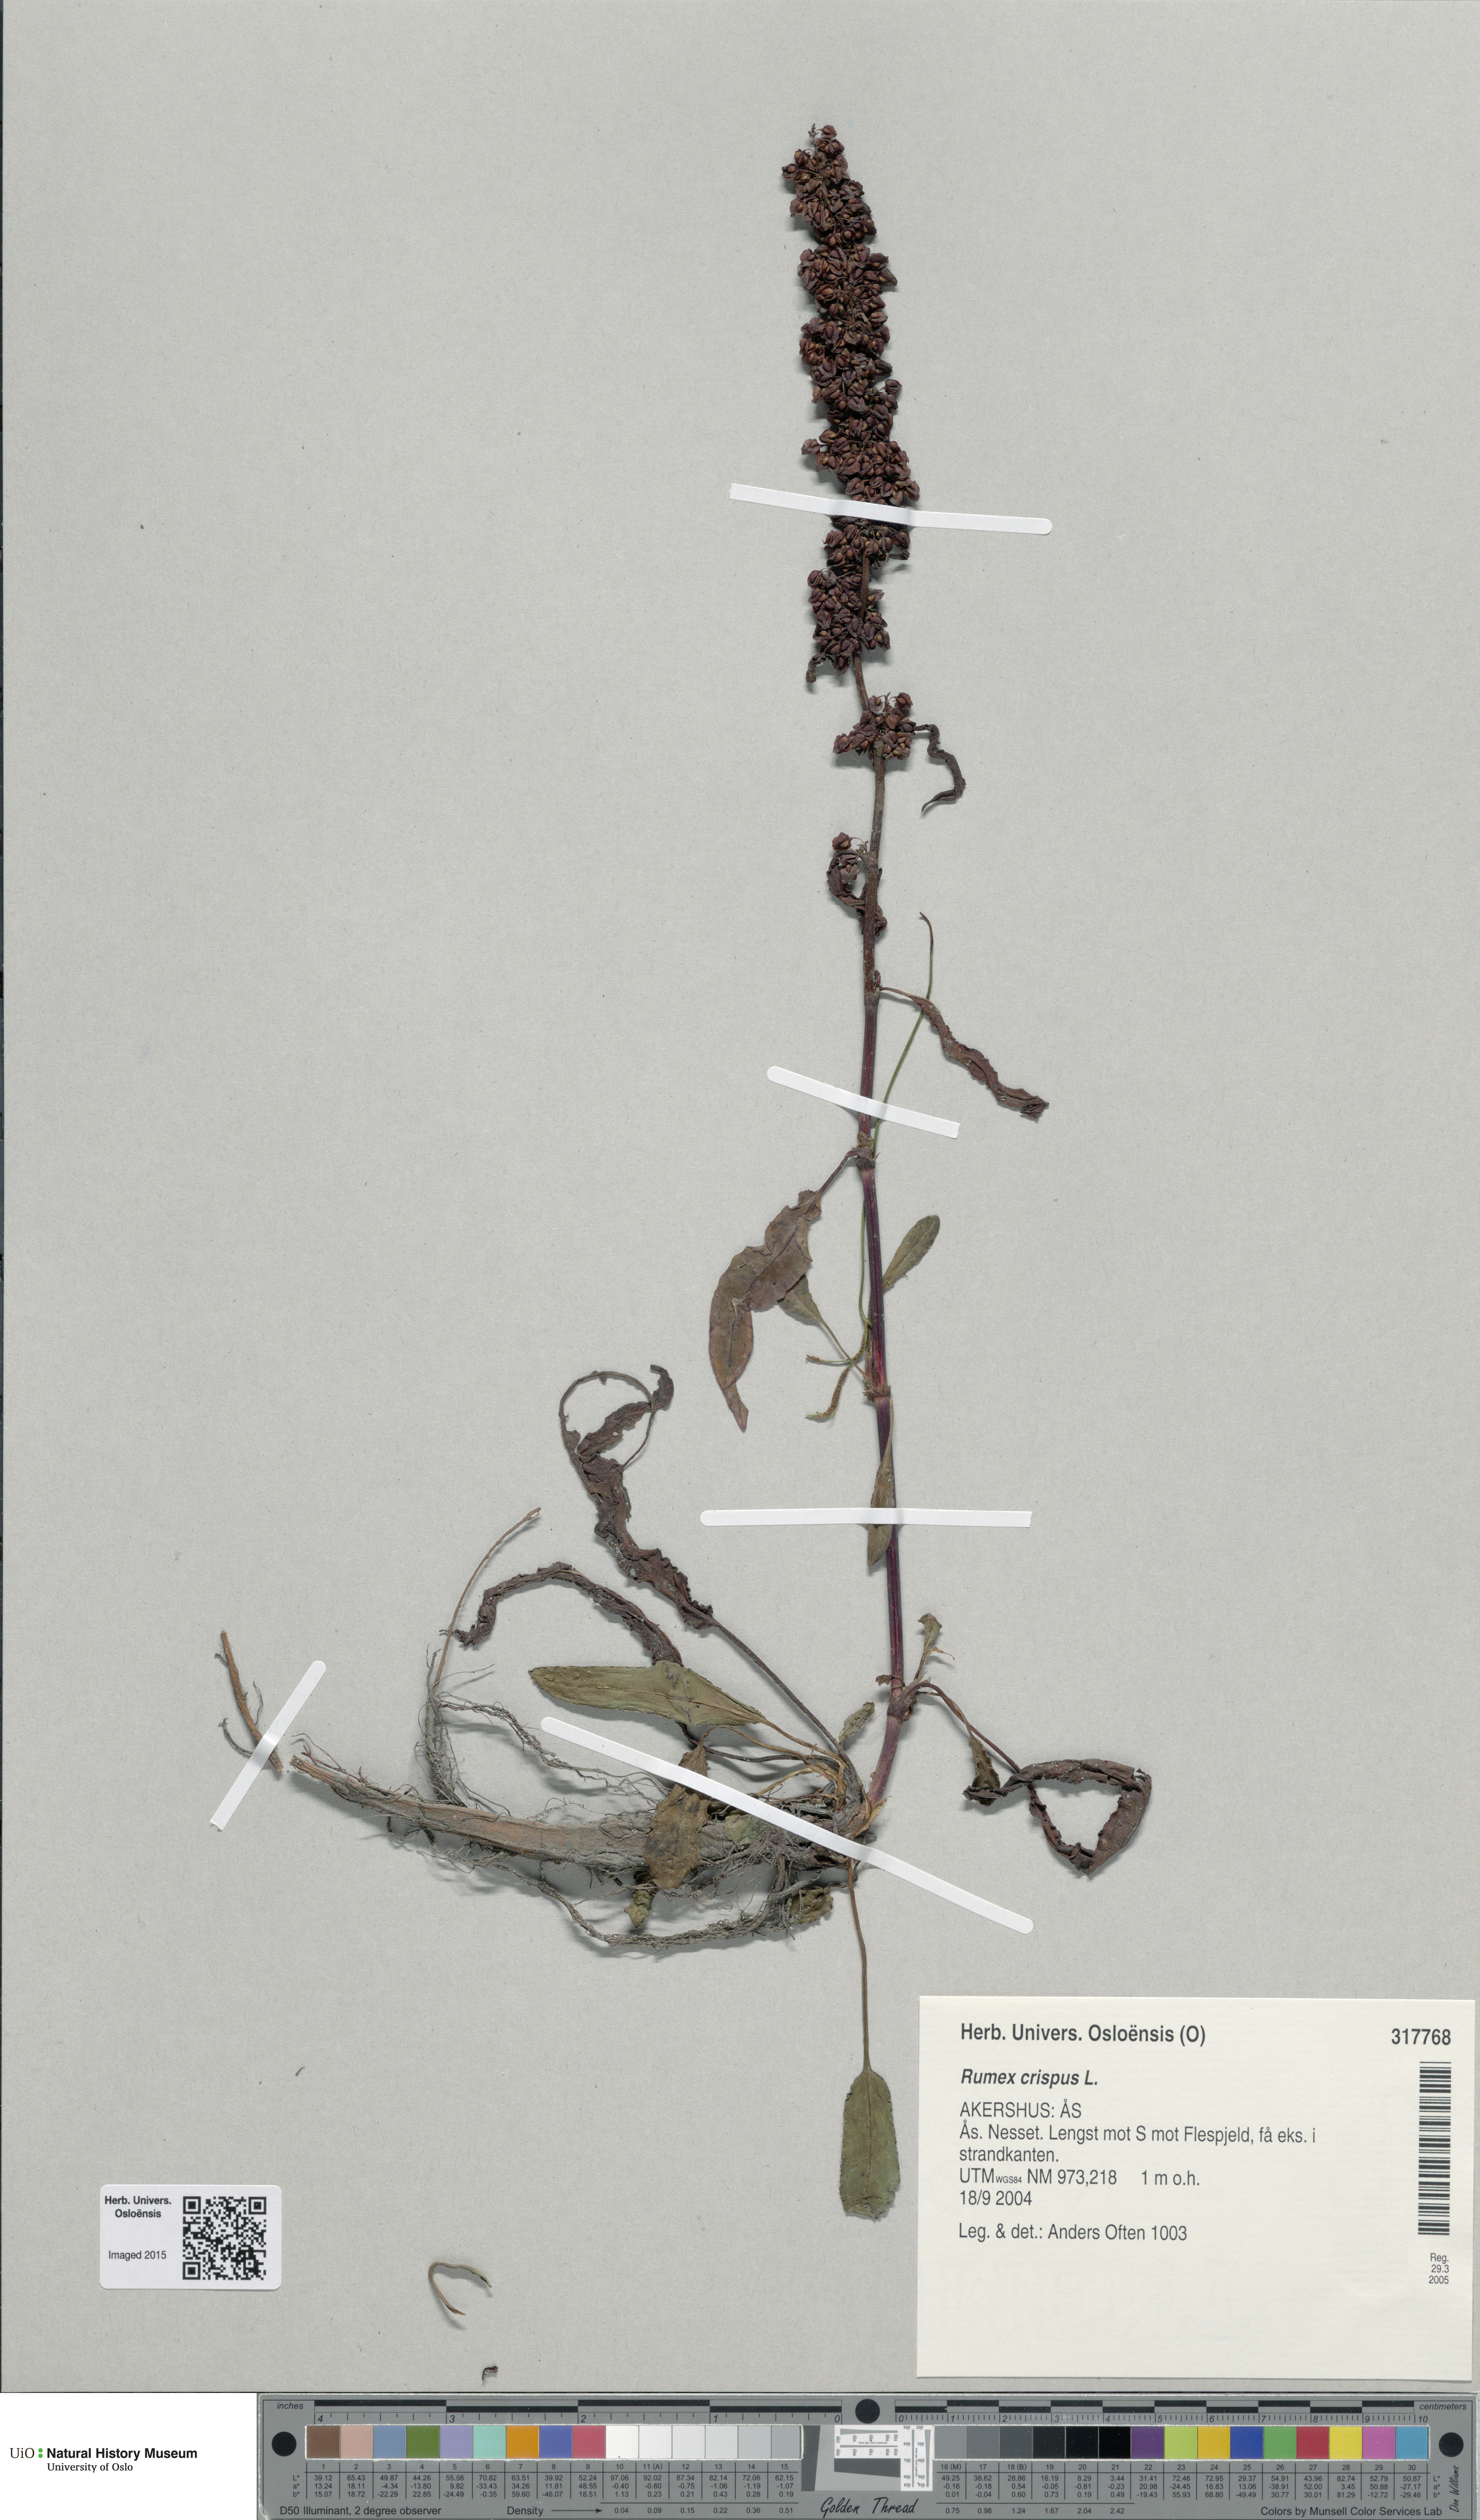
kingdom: Plantae
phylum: Tracheophyta
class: Magnoliopsida
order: Caryophyllales
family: Polygonaceae
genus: Rumex
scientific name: Rumex crispus
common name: Curled dock
